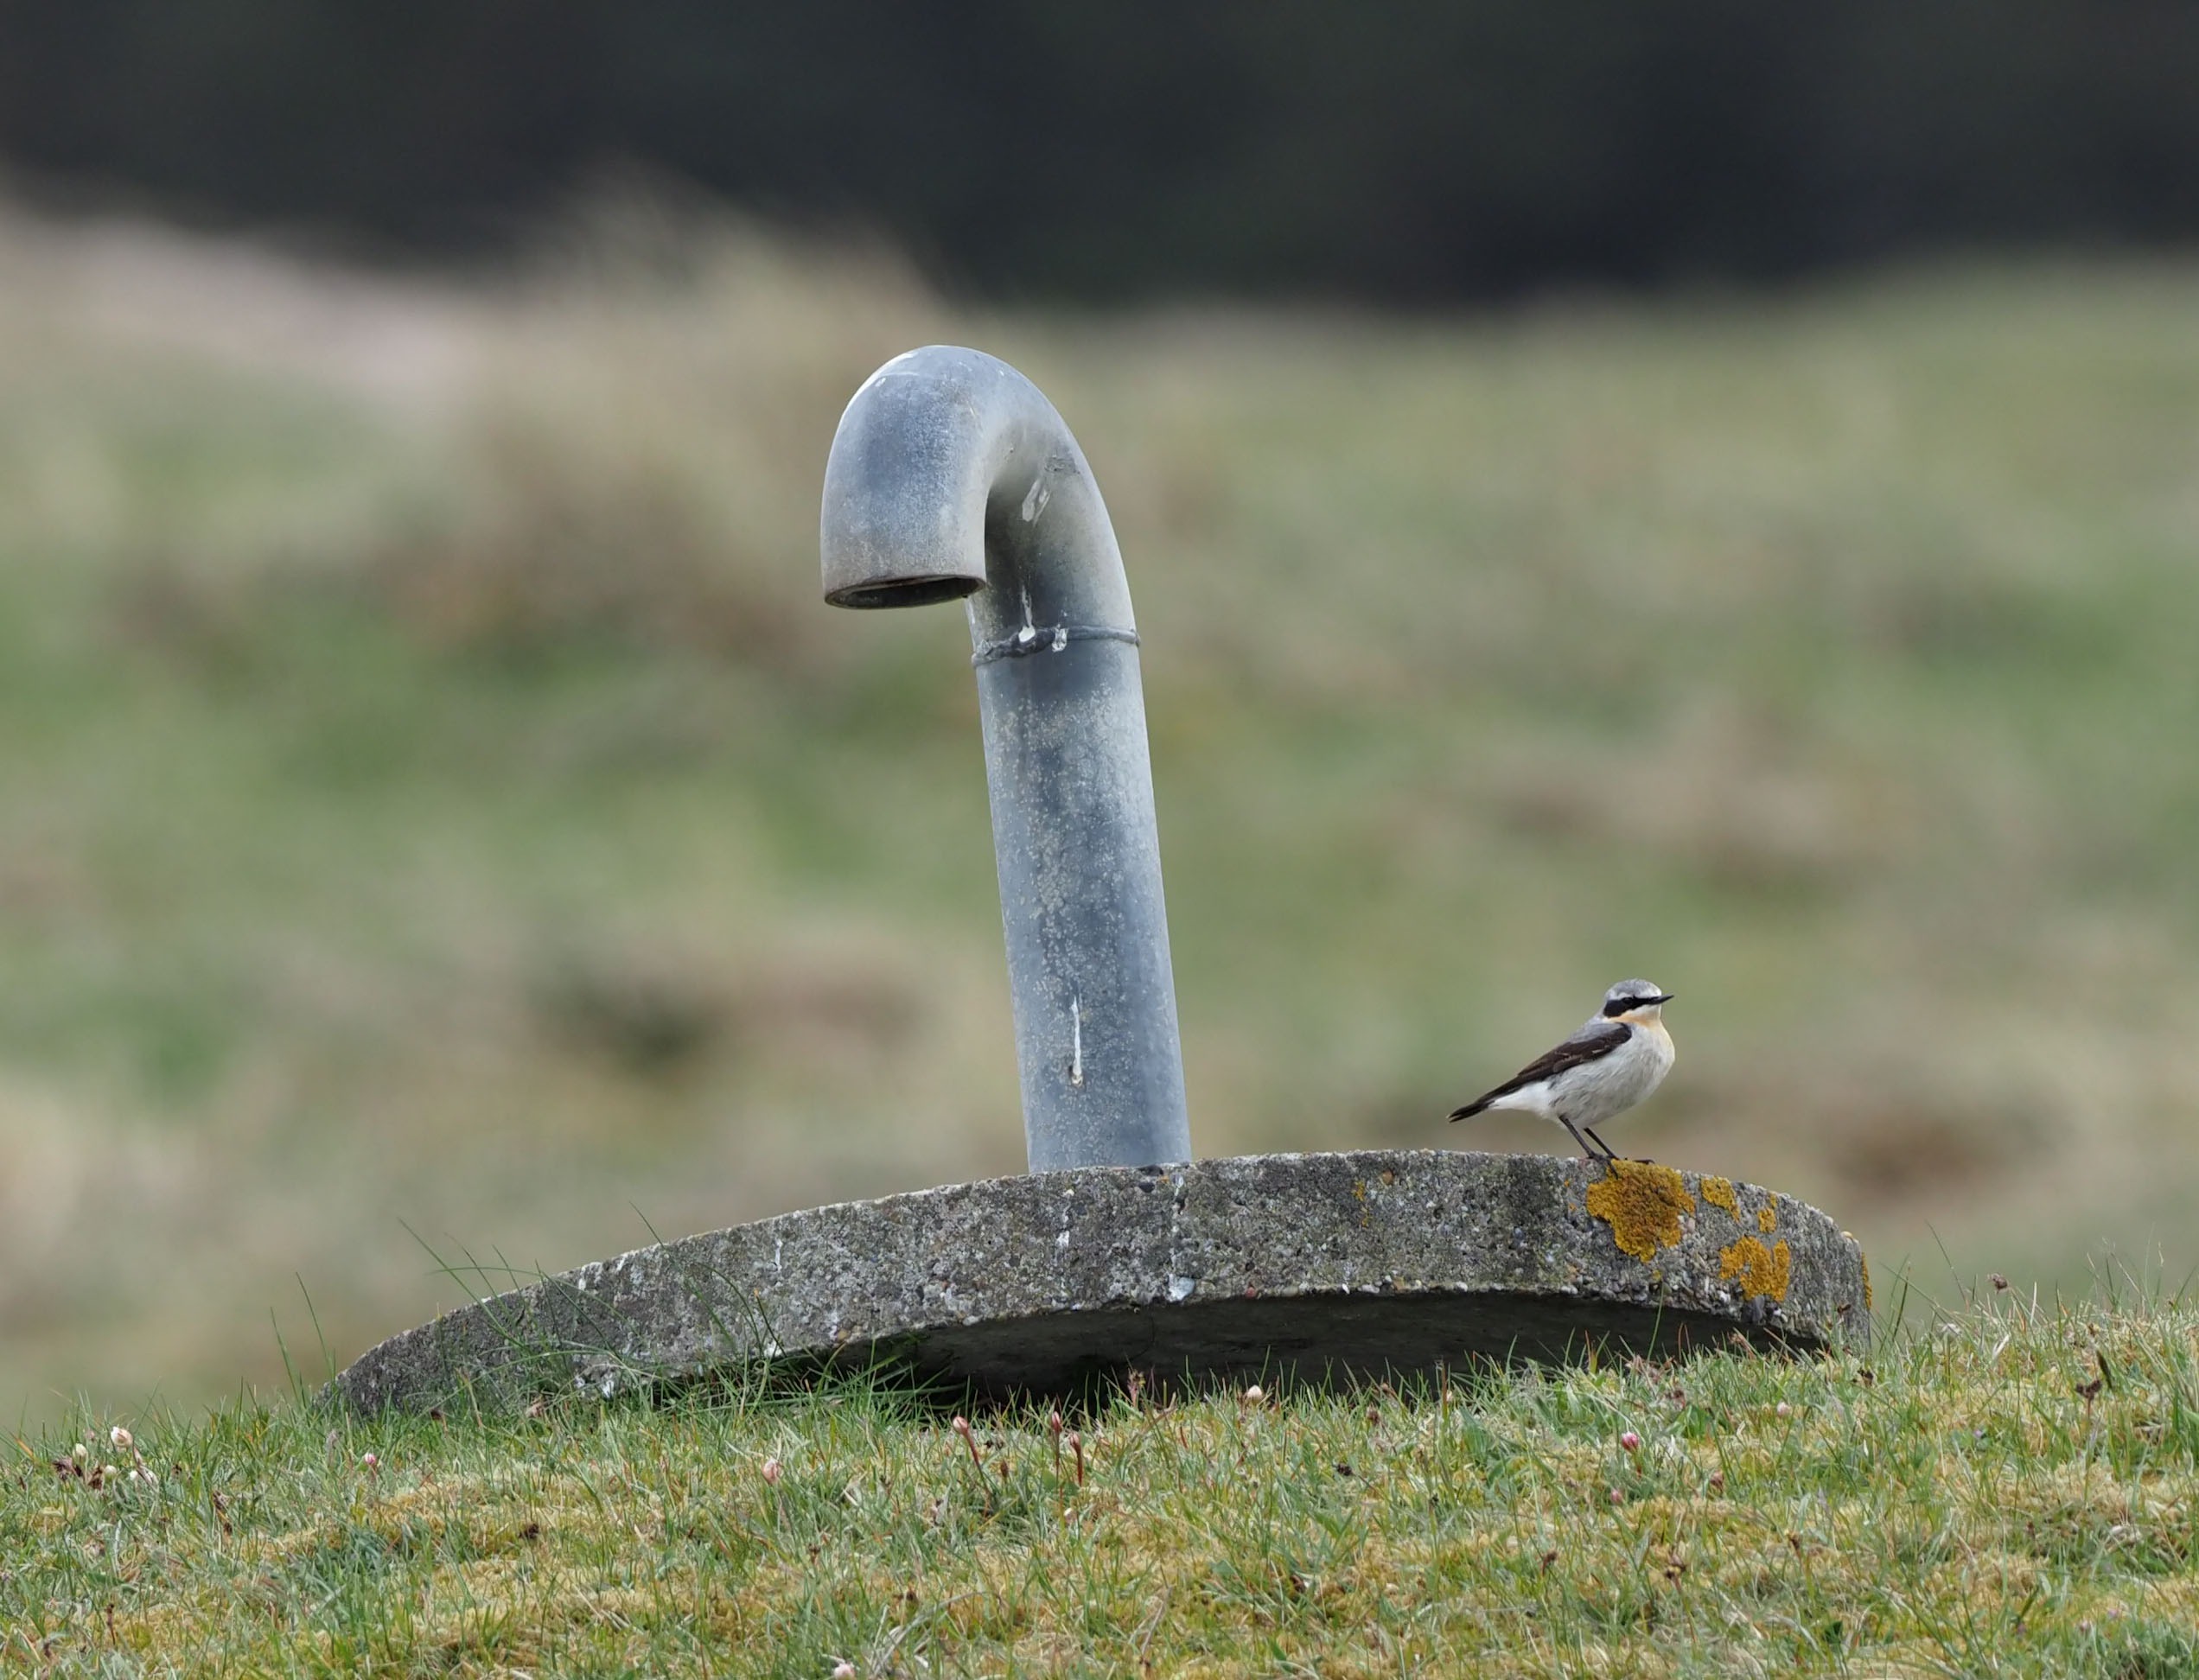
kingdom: Animalia
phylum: Chordata
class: Aves
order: Passeriformes
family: Muscicapidae
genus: Oenanthe
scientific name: Oenanthe oenanthe
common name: Stenpikker
